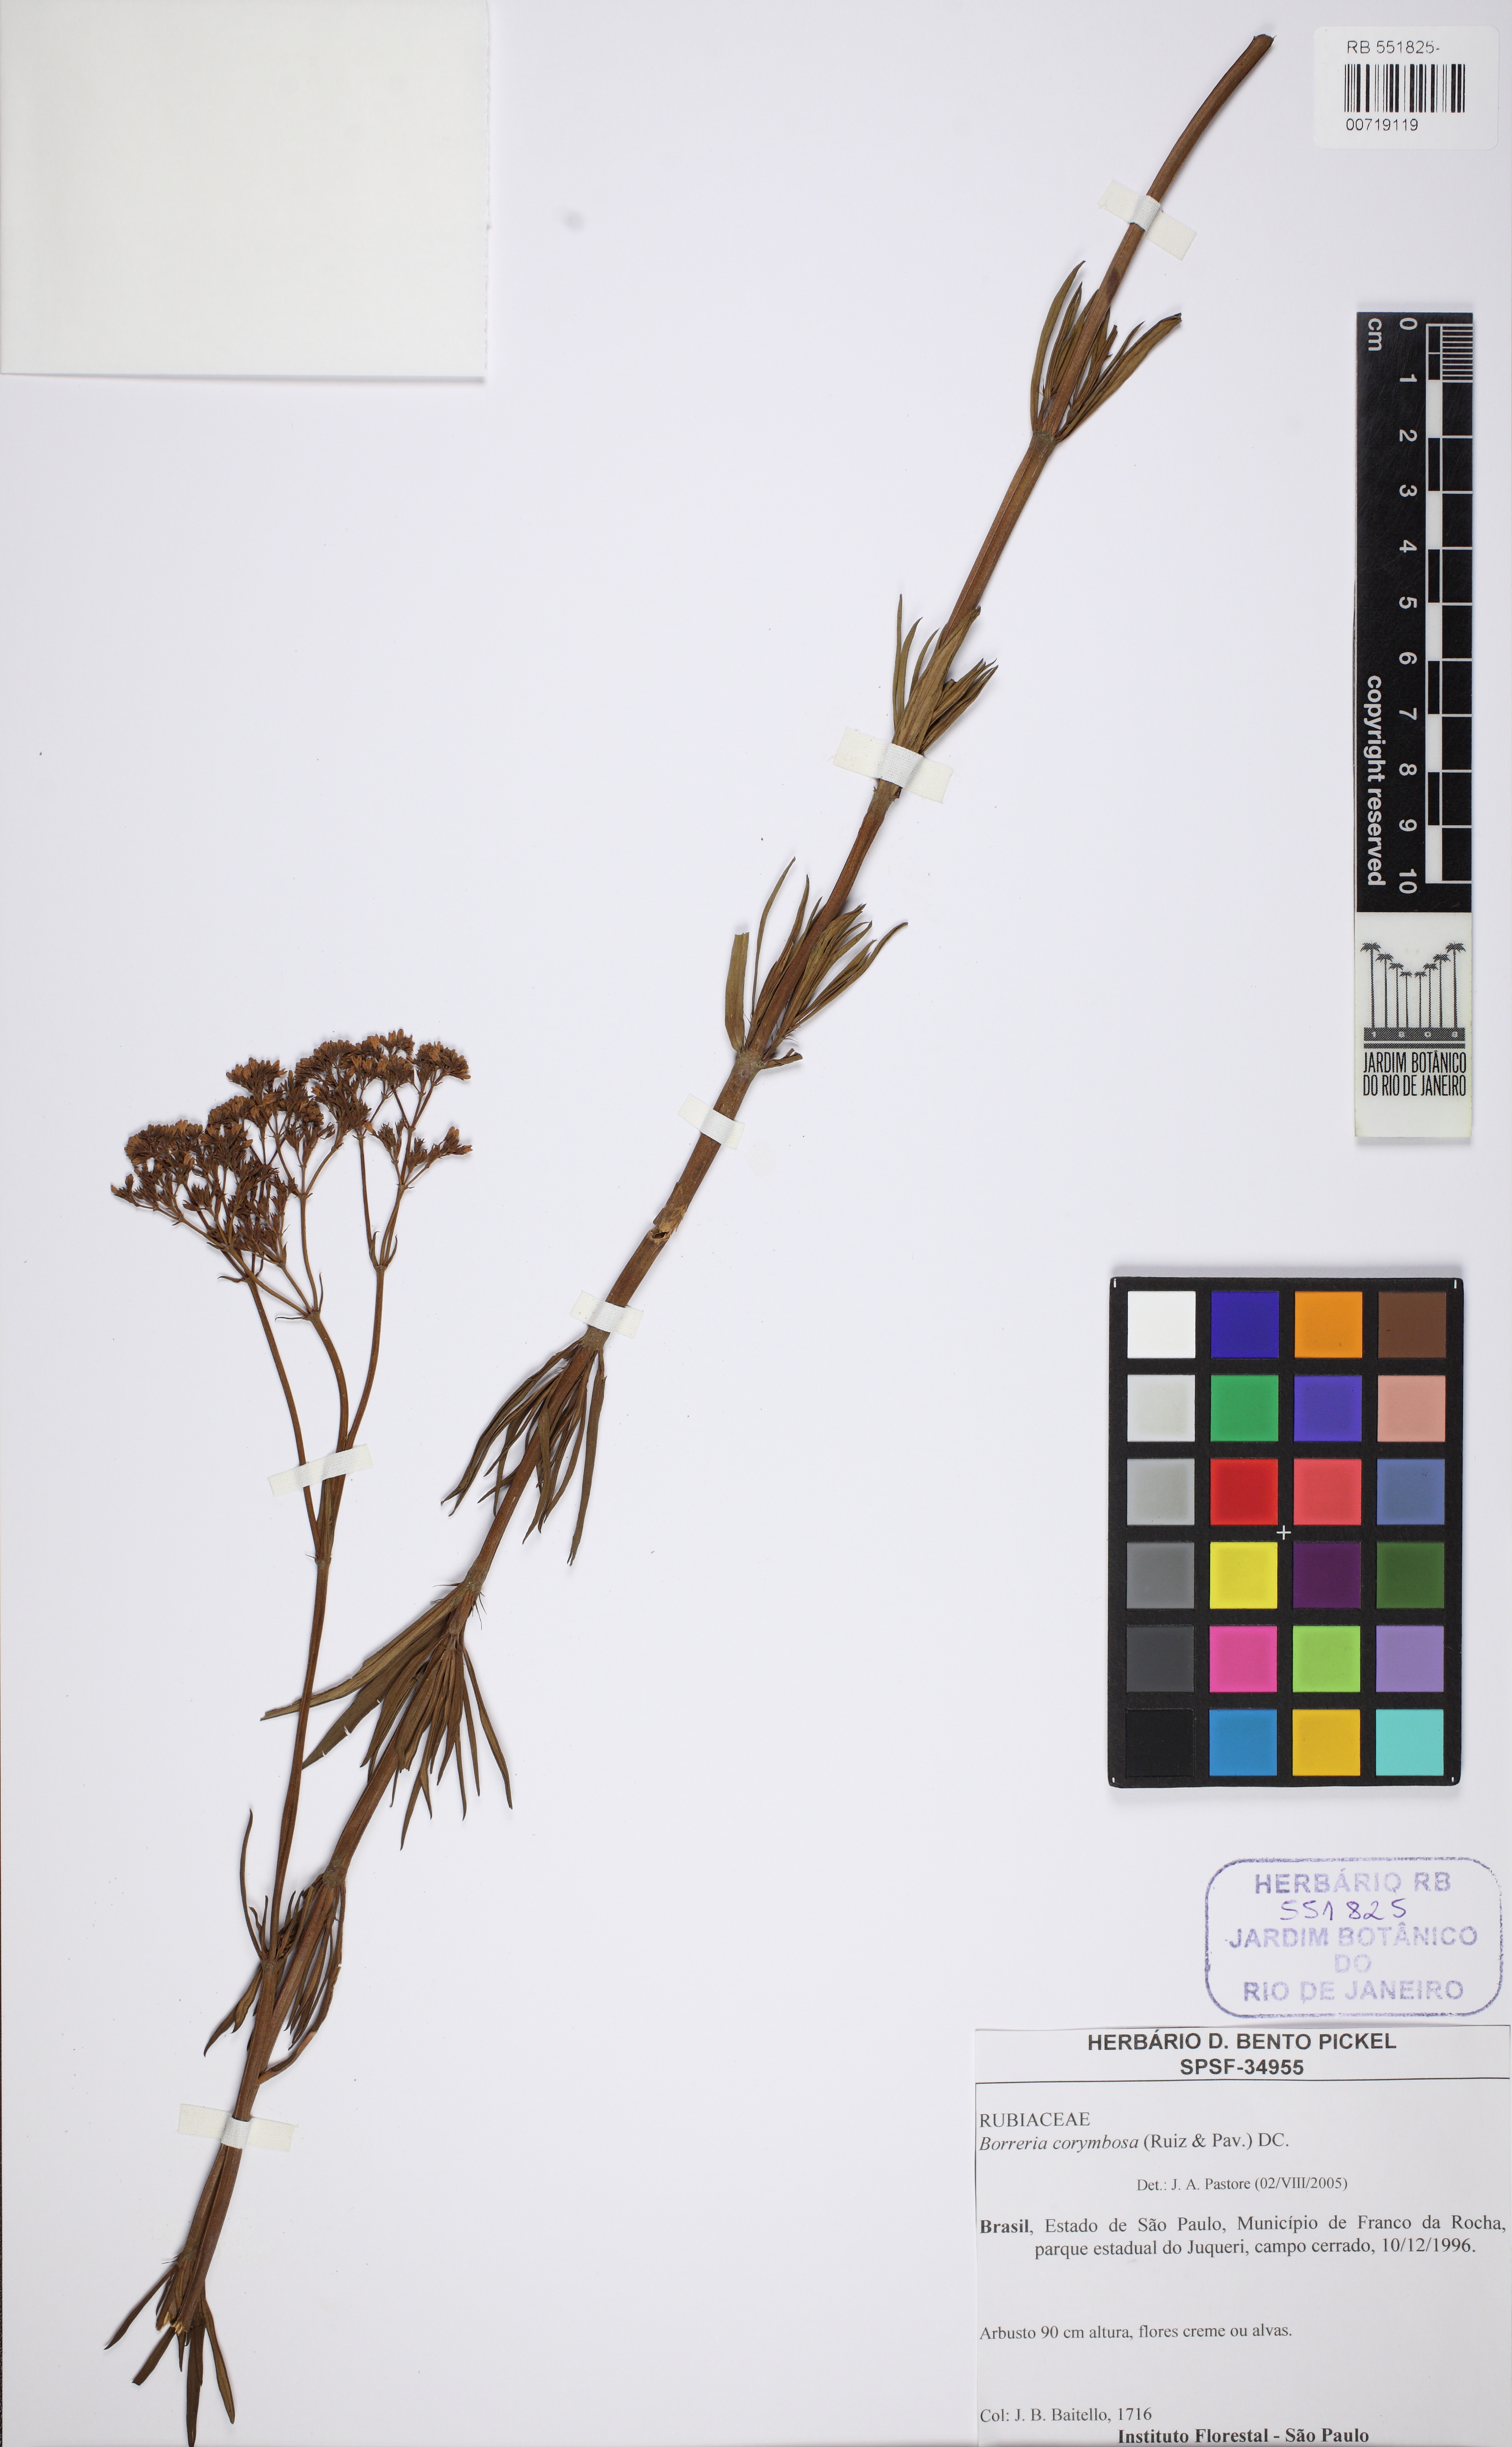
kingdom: Plantae
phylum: Tracheophyta
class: Magnoliopsida
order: Gentianales
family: Rubiaceae
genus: Galianthe
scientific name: Galianthe angustifolia
